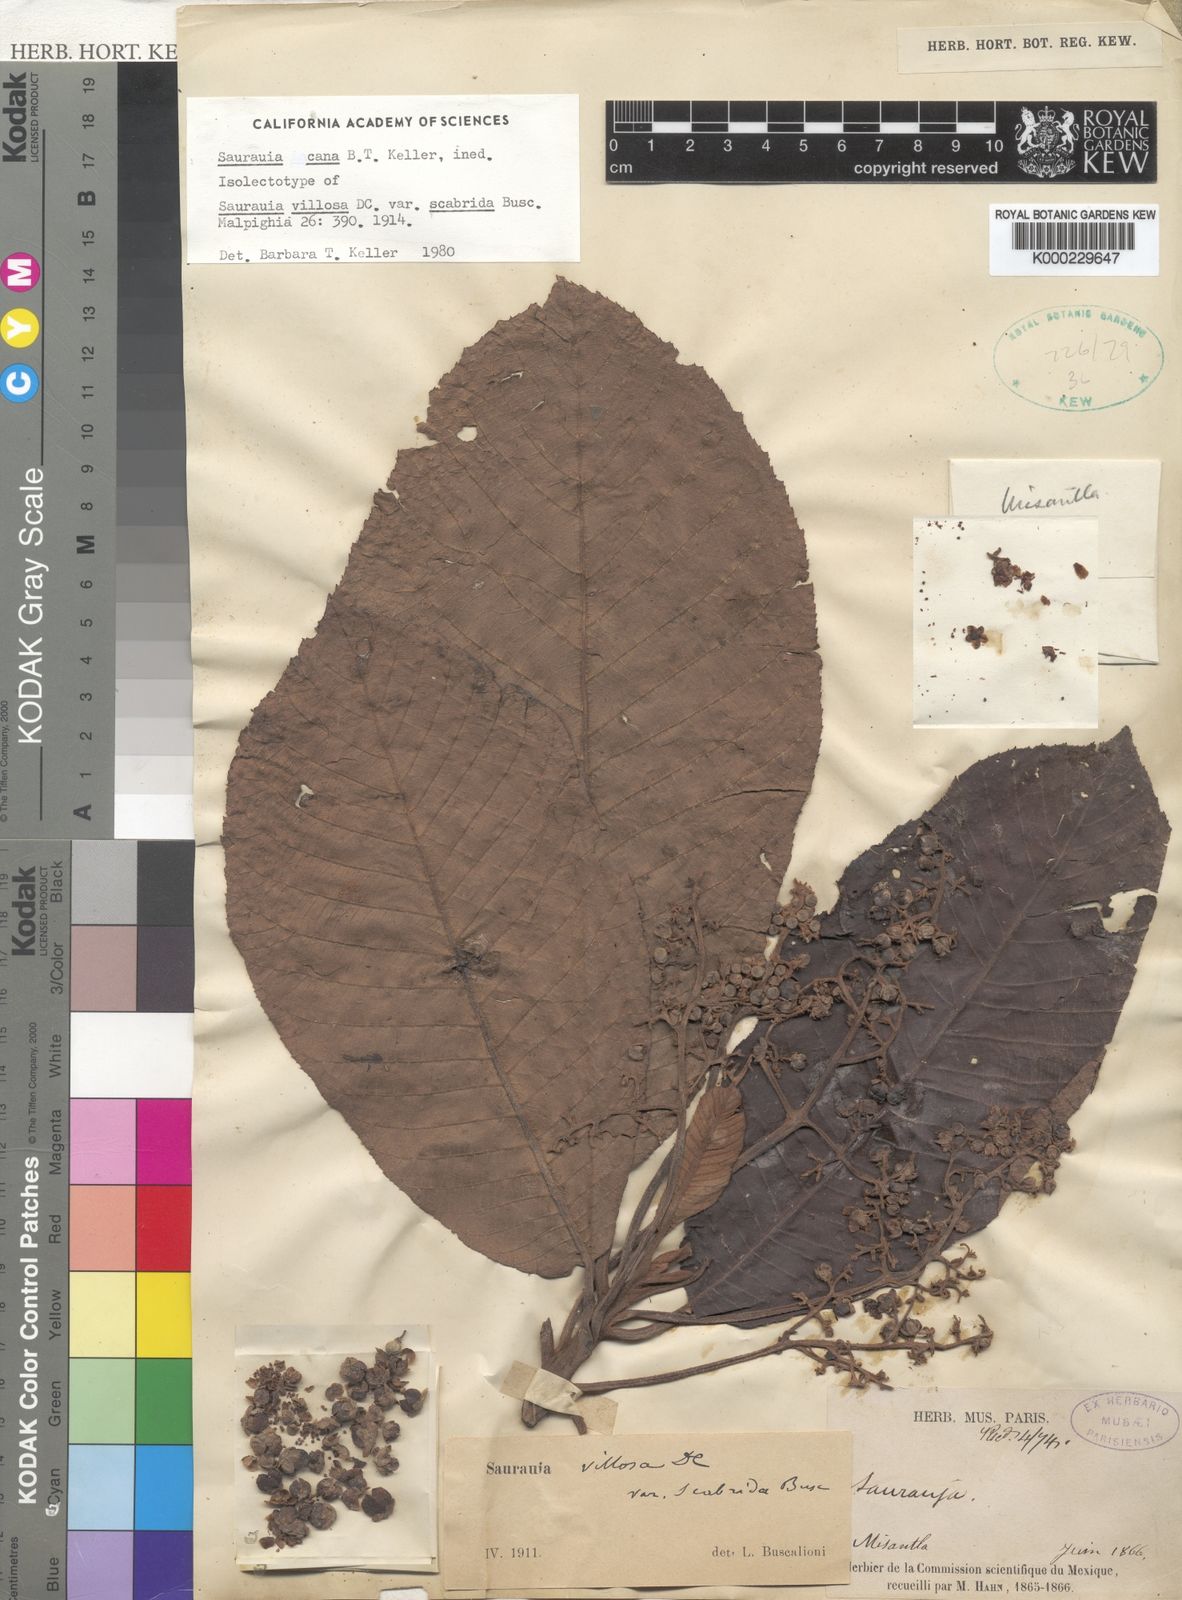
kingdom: Plantae
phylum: Tracheophyta
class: Magnoliopsida
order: Ericales
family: Actinidiaceae
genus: Saurauia
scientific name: Saurauia scabrida
